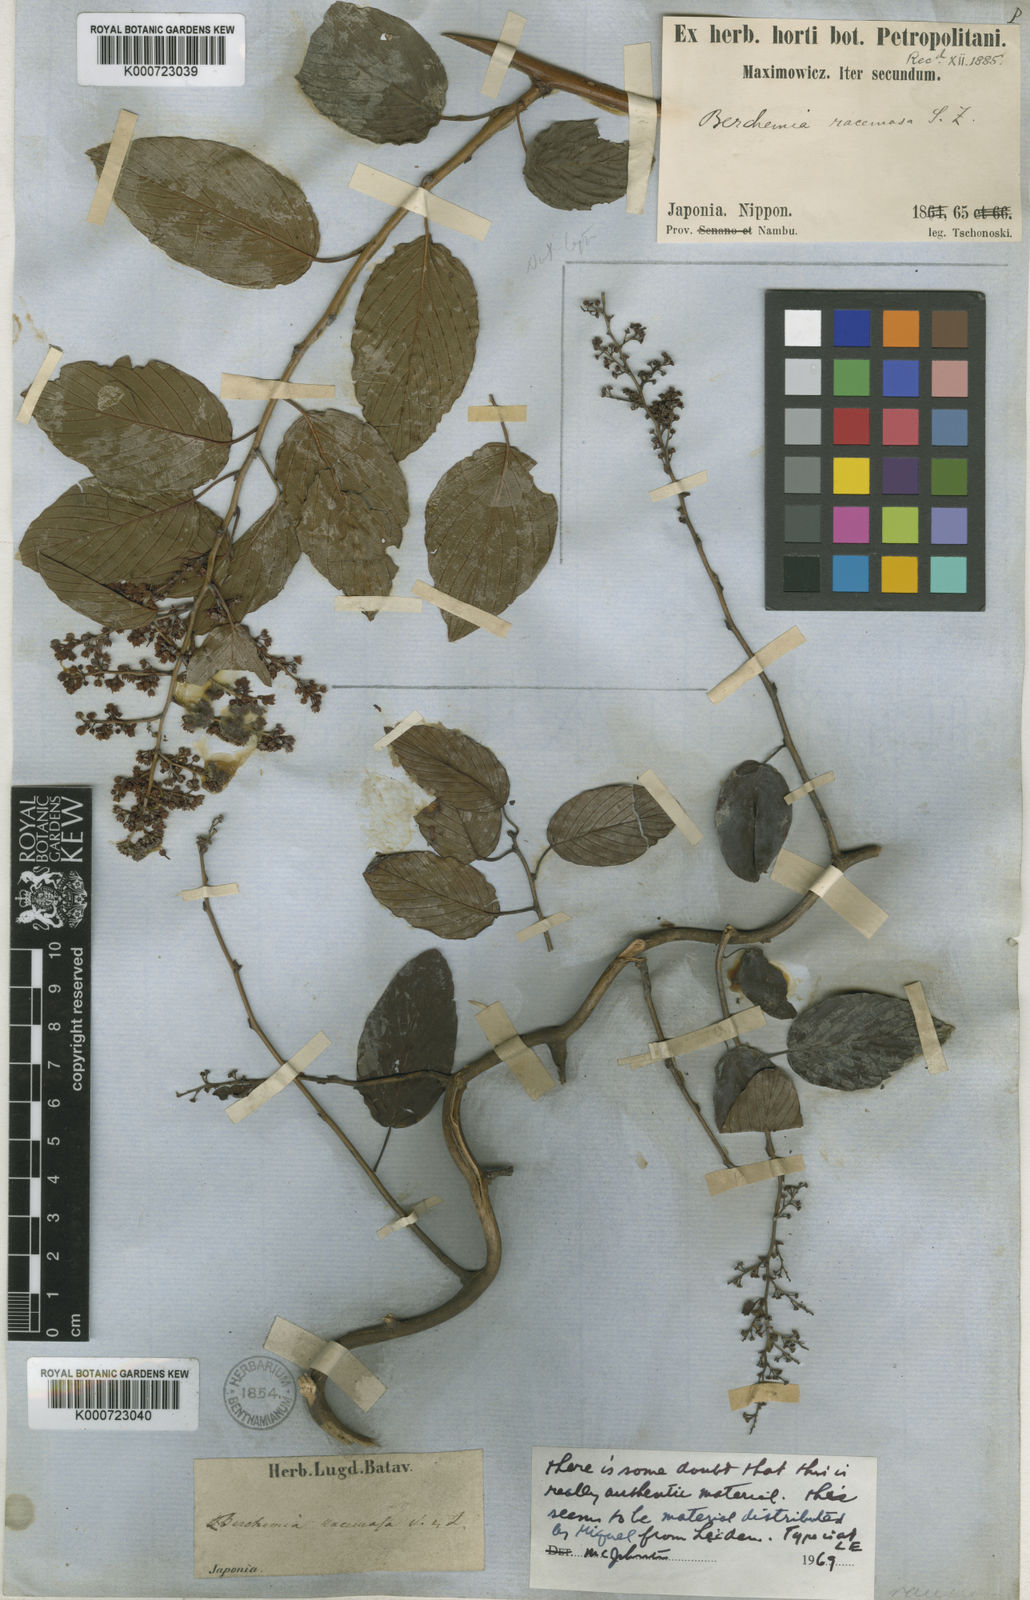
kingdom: Plantae
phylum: Tracheophyta
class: Magnoliopsida
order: Rosales
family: Rhamnaceae
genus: Berchemia
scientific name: Berchemia floribunda
